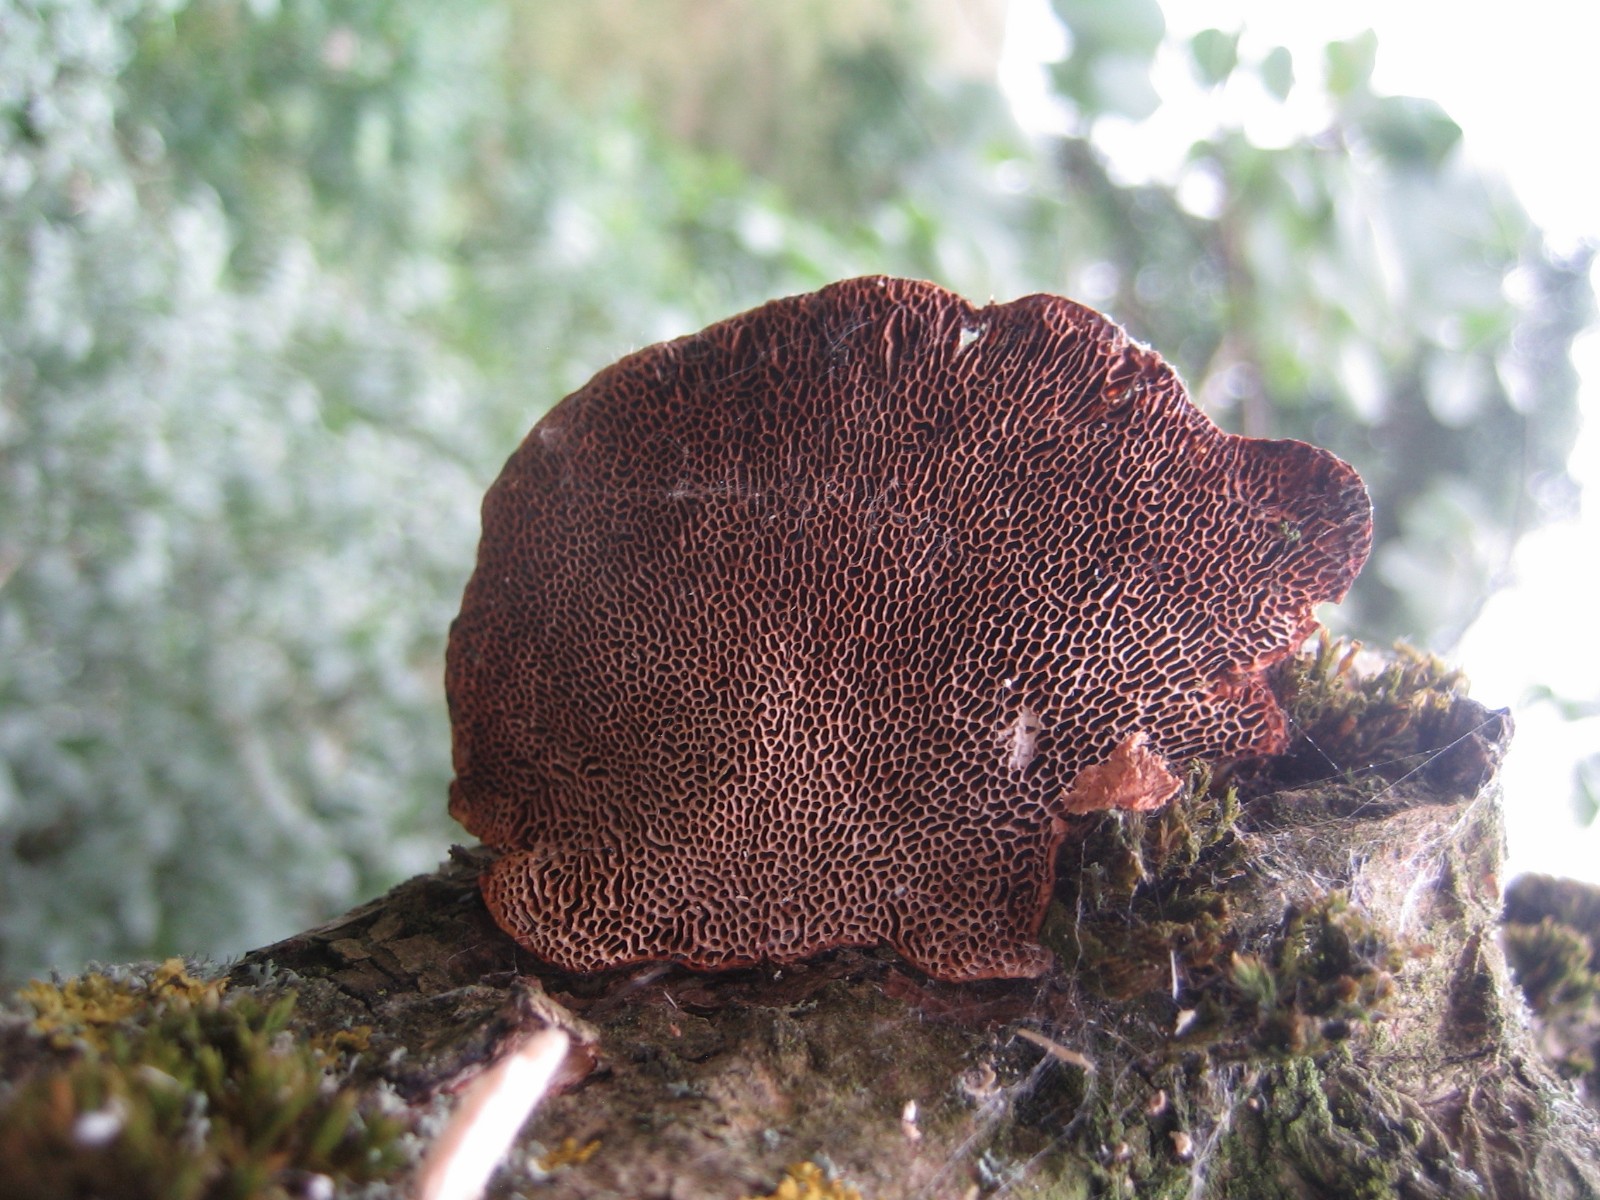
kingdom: Fungi
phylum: Basidiomycota
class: Agaricomycetes
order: Polyporales
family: Polyporaceae
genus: Daedaleopsis
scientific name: Daedaleopsis confragosa
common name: rødmende læderporesvamp
